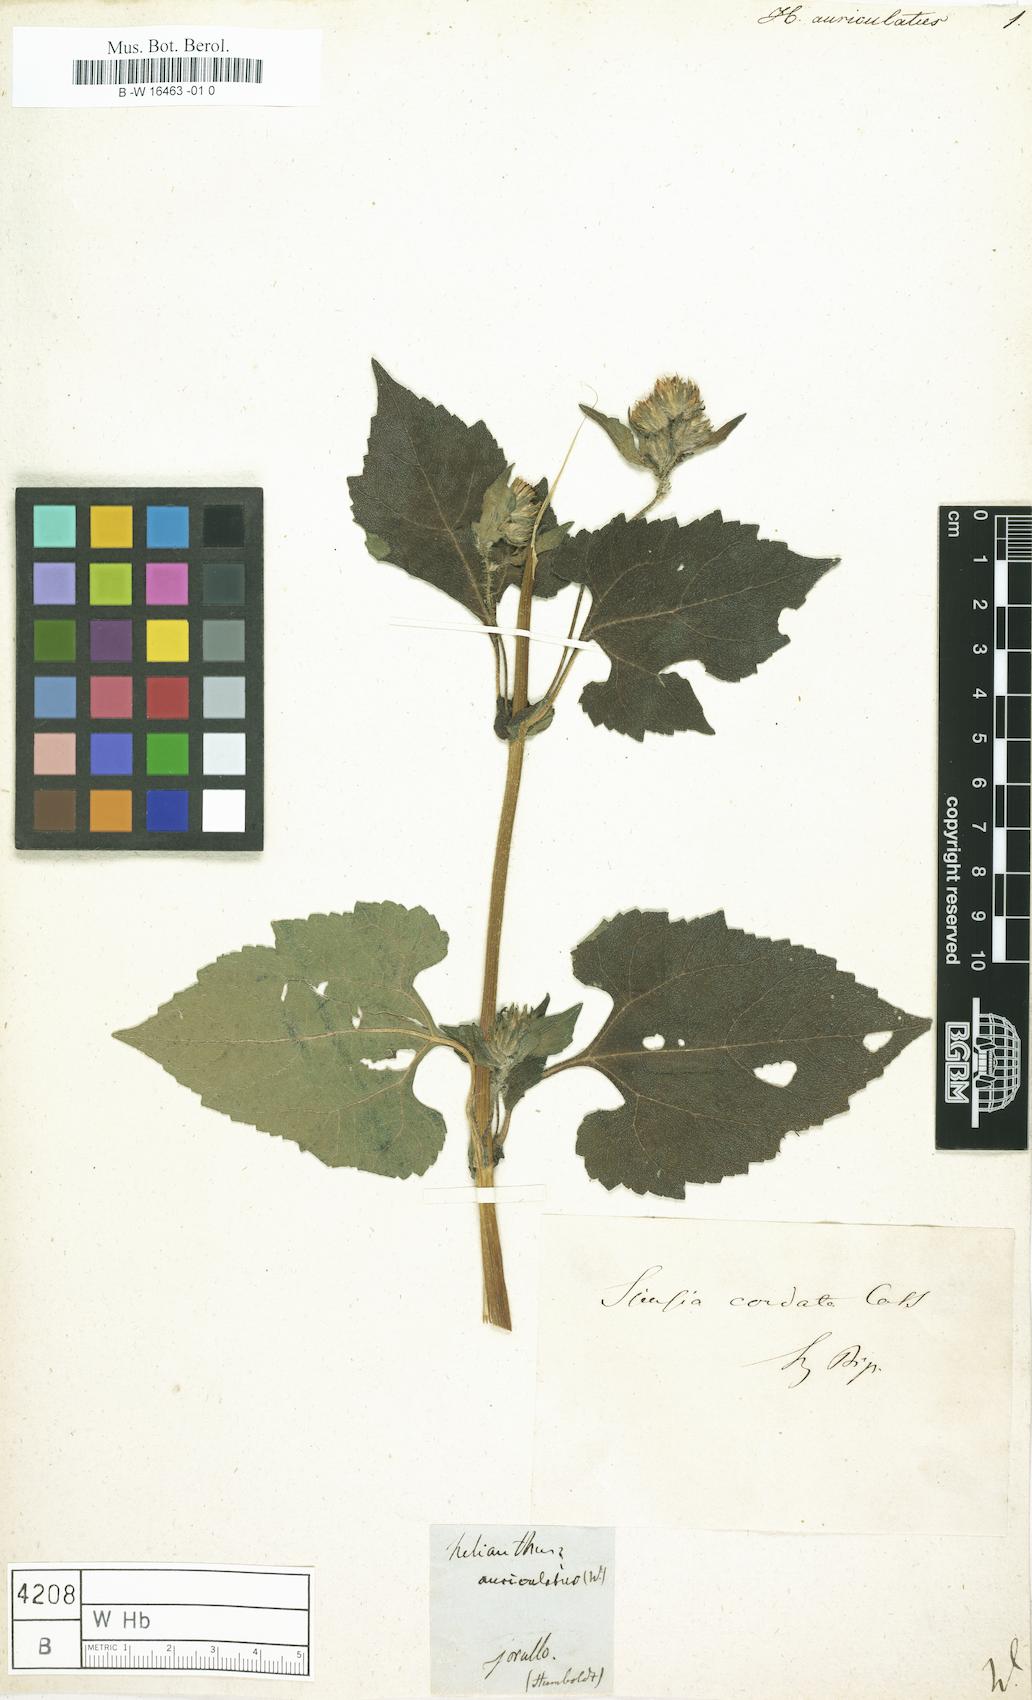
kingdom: Plantae
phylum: Tracheophyta
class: Magnoliopsida
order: Asterales
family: Asteraceae
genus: Helianthus
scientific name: Helianthus
